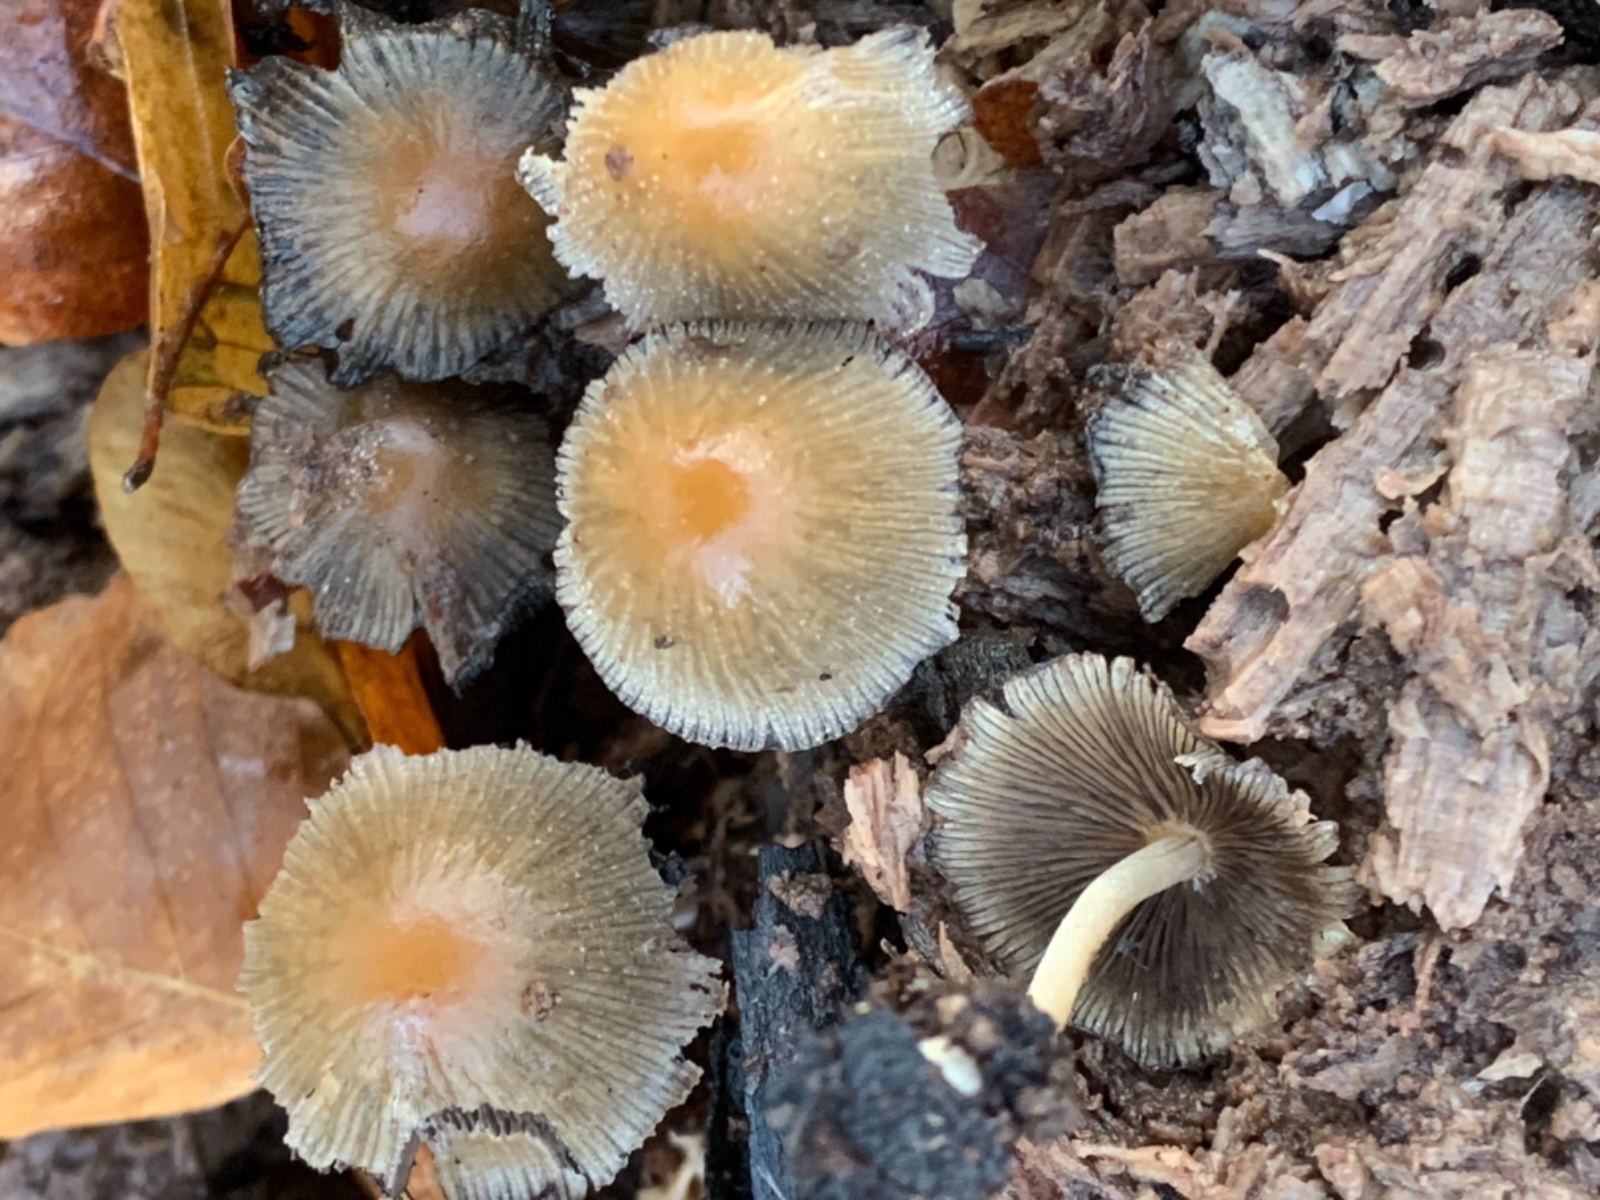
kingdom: Fungi
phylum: Basidiomycota
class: Agaricomycetes
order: Agaricales
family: Psathyrellaceae
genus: Coprinellus
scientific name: Coprinellus micaceus
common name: glimmer-blækhat
